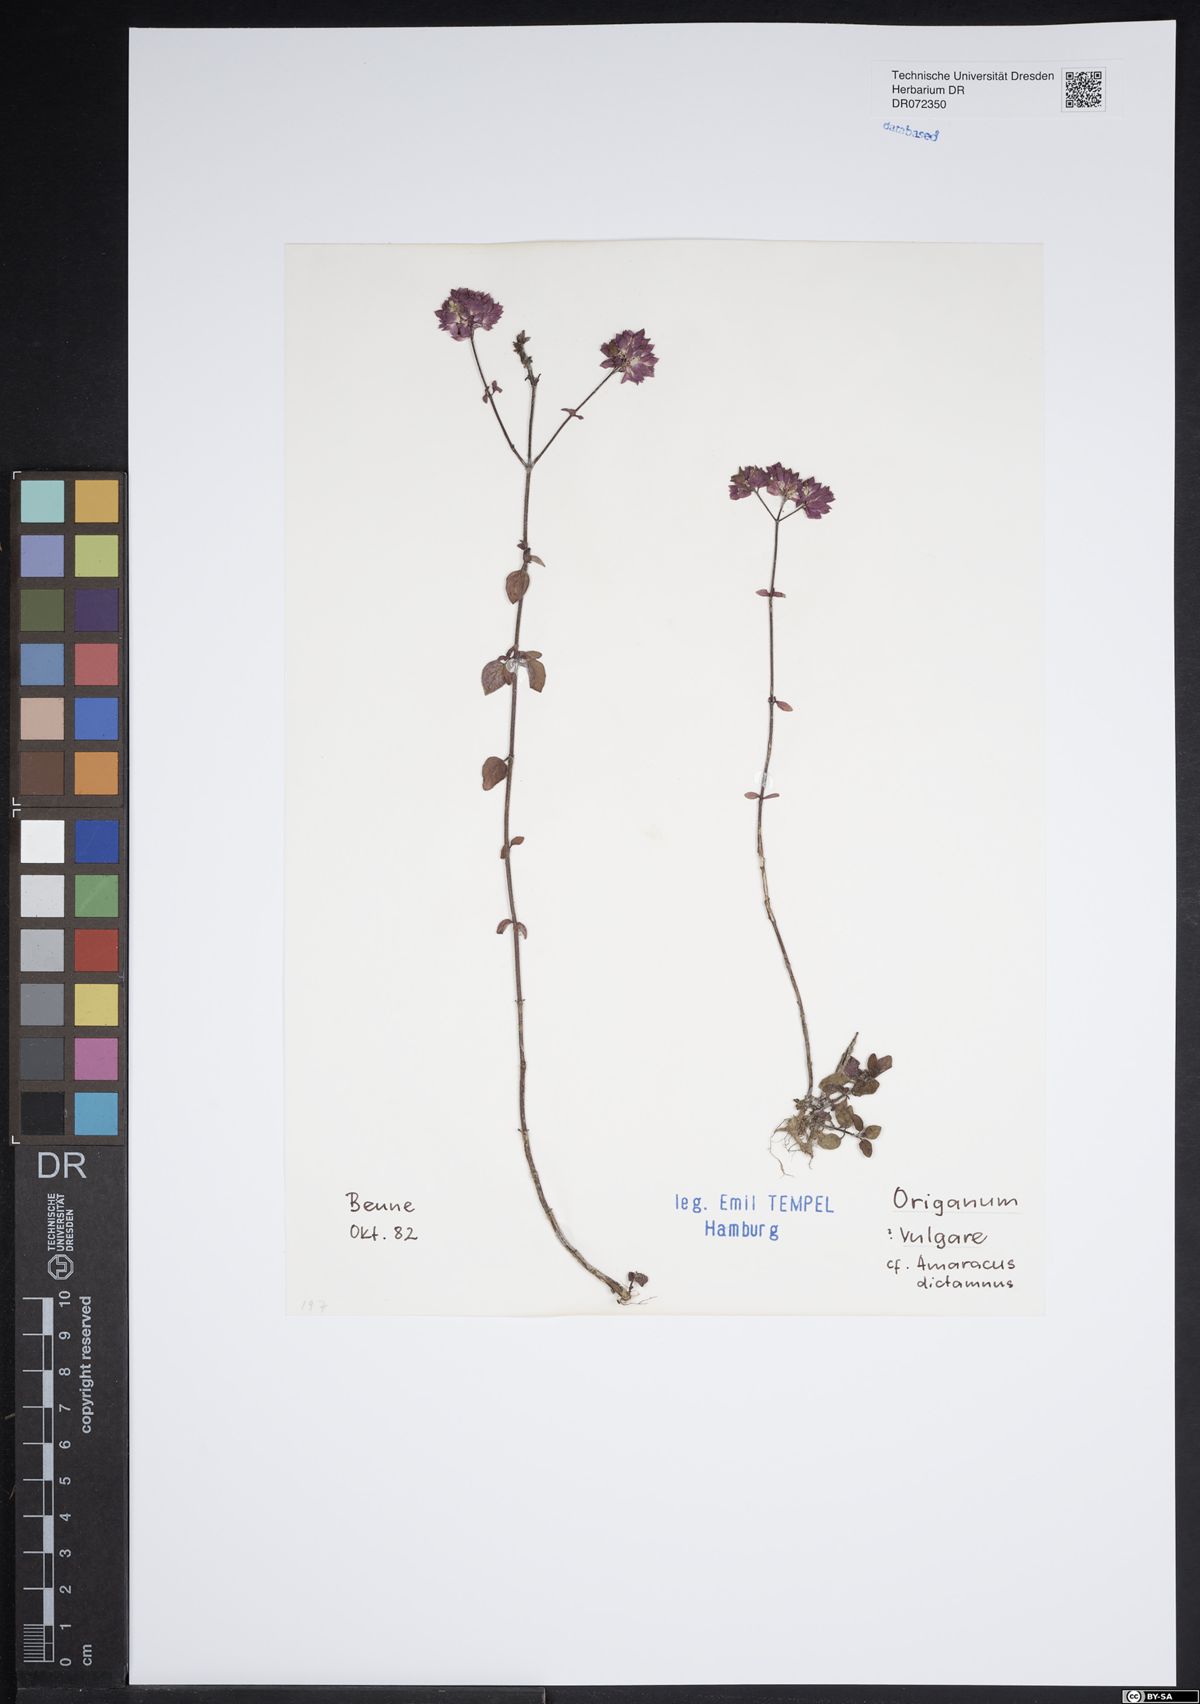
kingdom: Plantae
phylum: Tracheophyta
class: Magnoliopsida
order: Lamiales
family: Lamiaceae
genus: Origanum
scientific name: Origanum vulgare
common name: Wild marjoram
